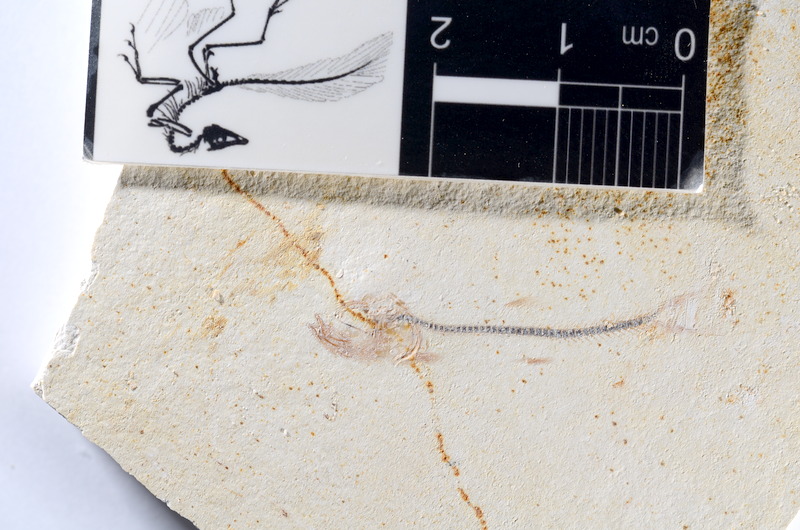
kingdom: Animalia
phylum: Chordata
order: Salmoniformes
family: Orthogonikleithridae
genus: Orthogonikleithrus
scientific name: Orthogonikleithrus hoelli
